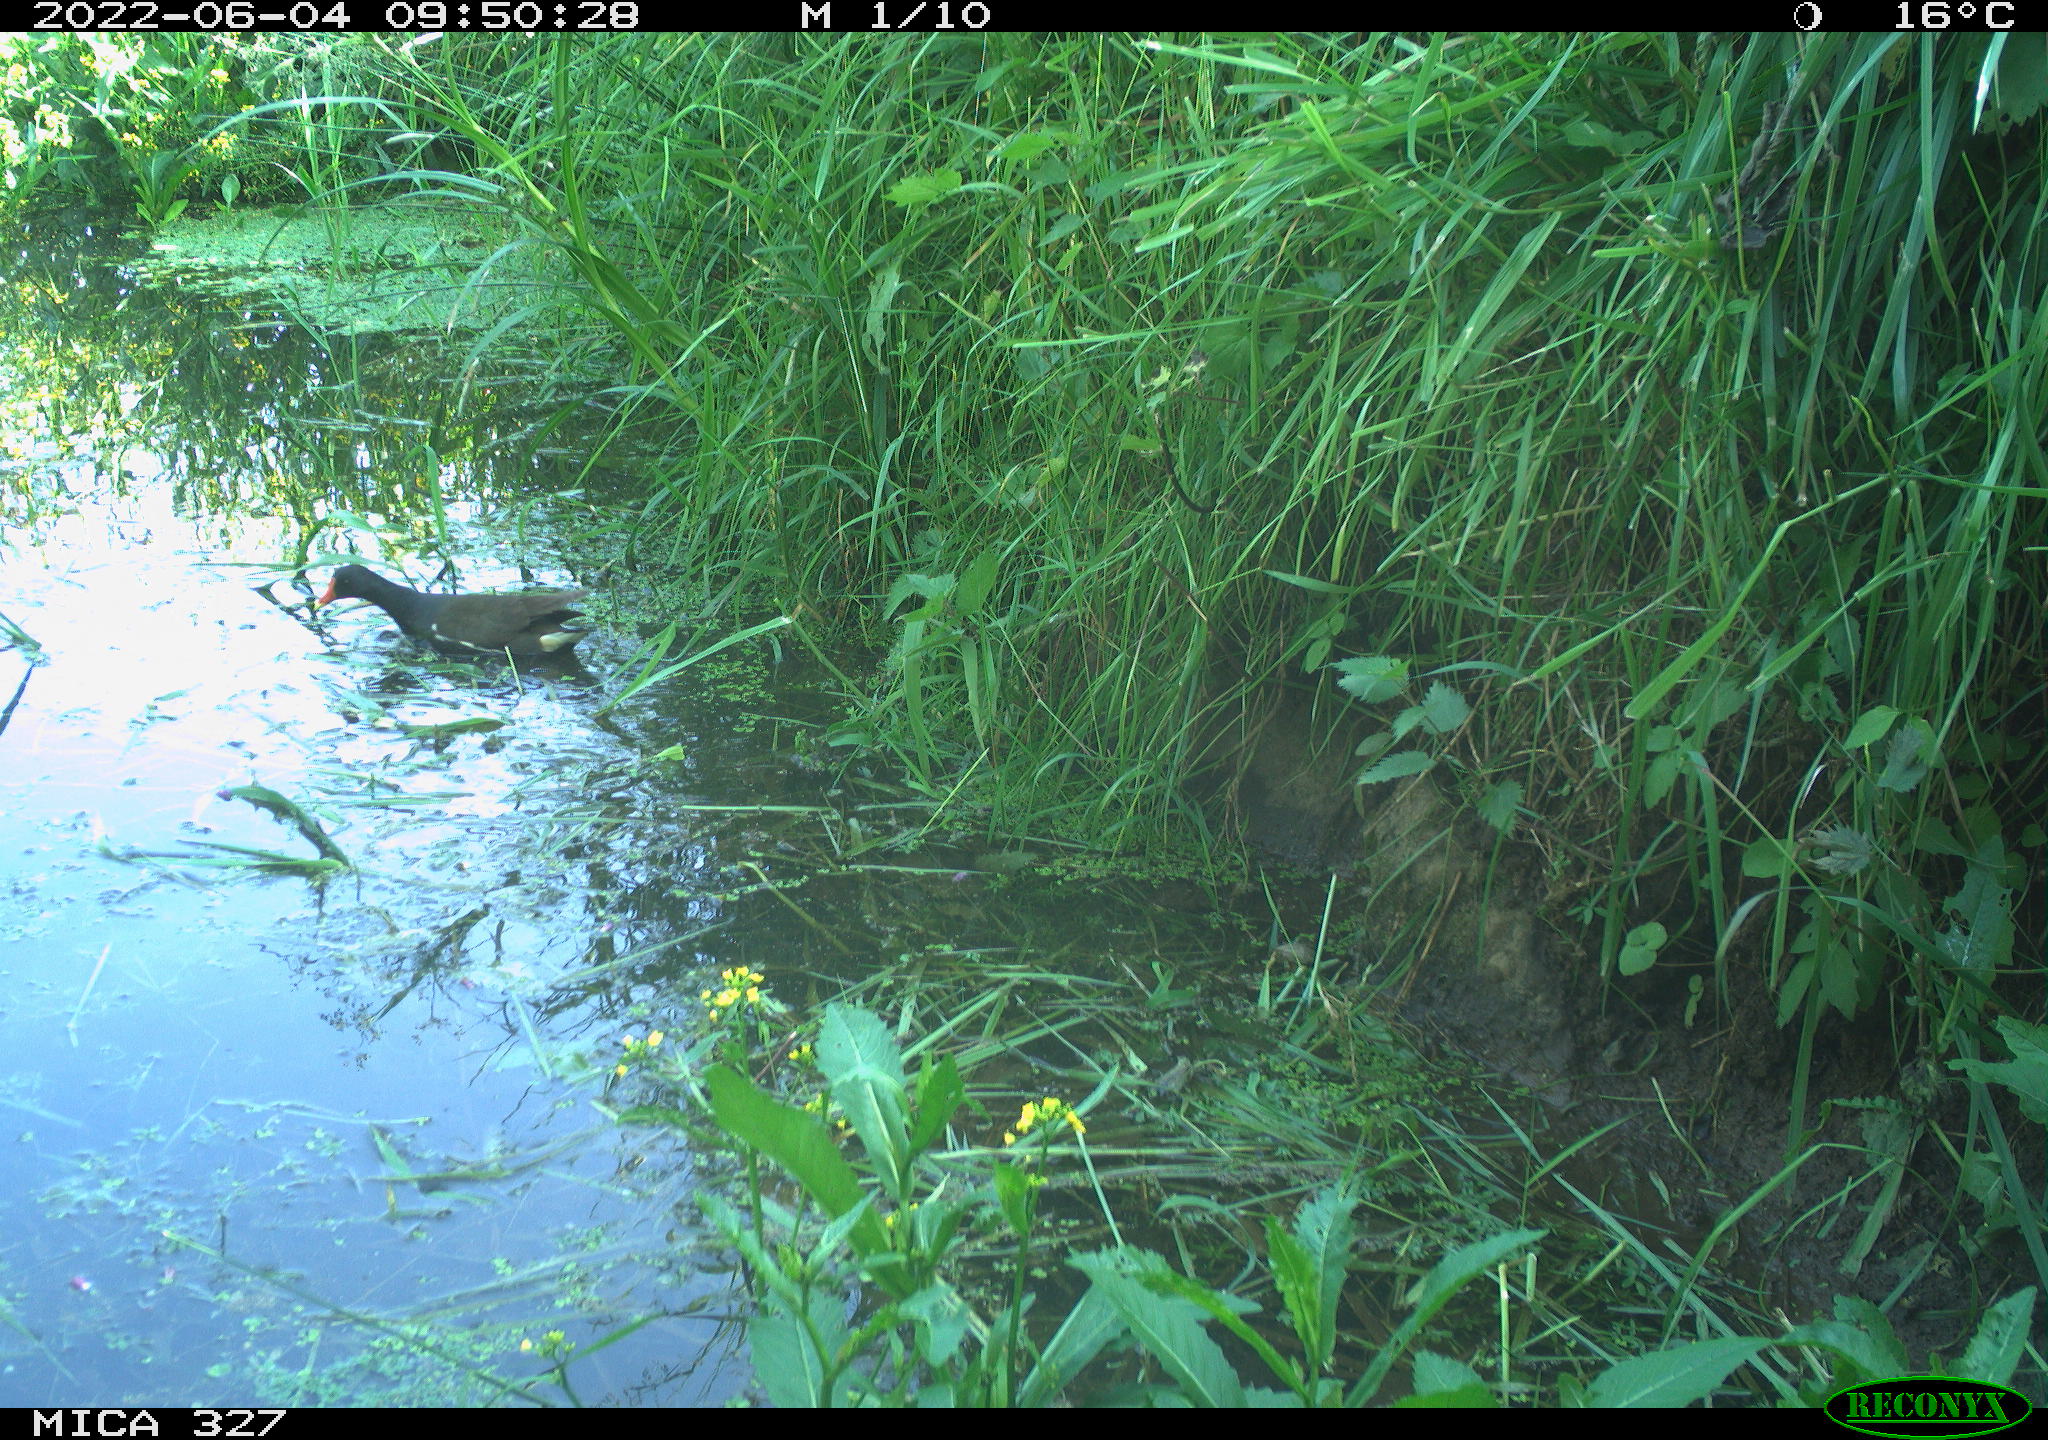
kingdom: Animalia
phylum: Chordata
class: Aves
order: Gruiformes
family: Rallidae
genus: Gallinula
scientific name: Gallinula chloropus
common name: Common moorhen
